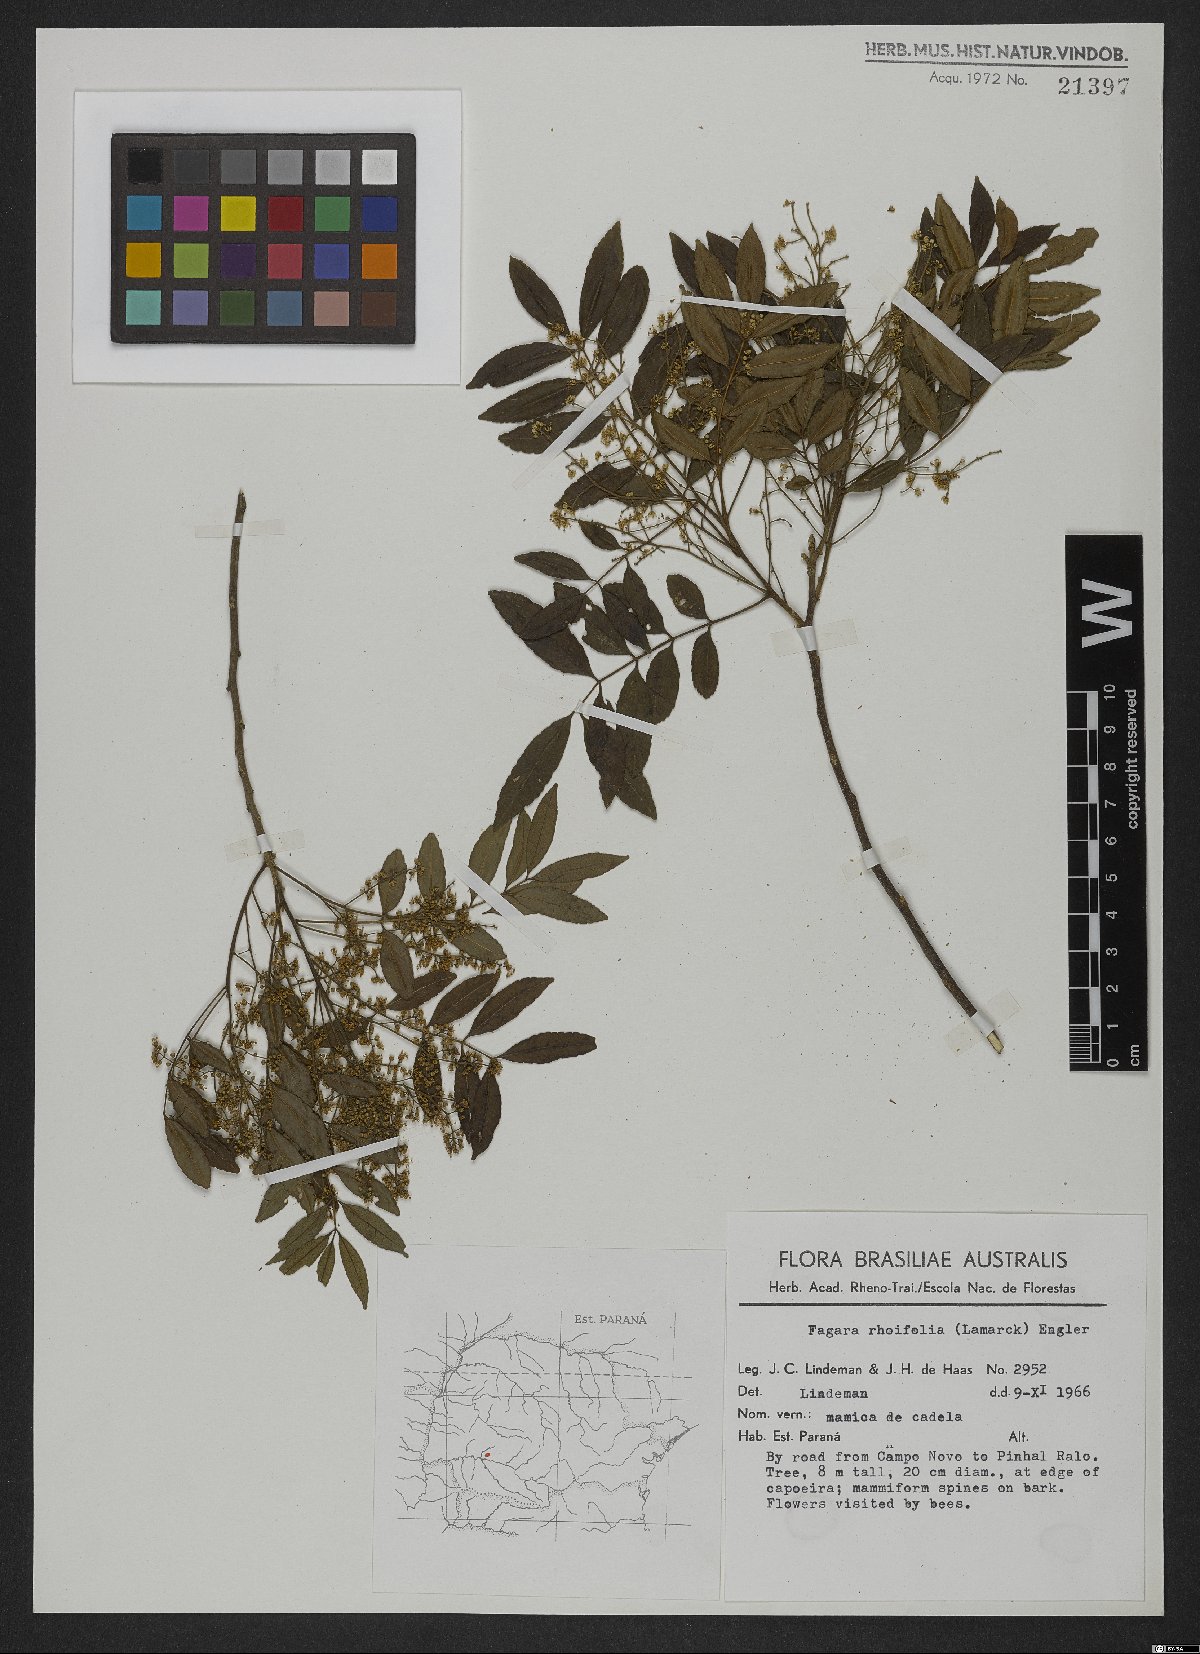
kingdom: Plantae
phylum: Tracheophyta
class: Magnoliopsida
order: Sapindales
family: Rutaceae
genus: Zanthoxylum
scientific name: Zanthoxylum rhoifolium
